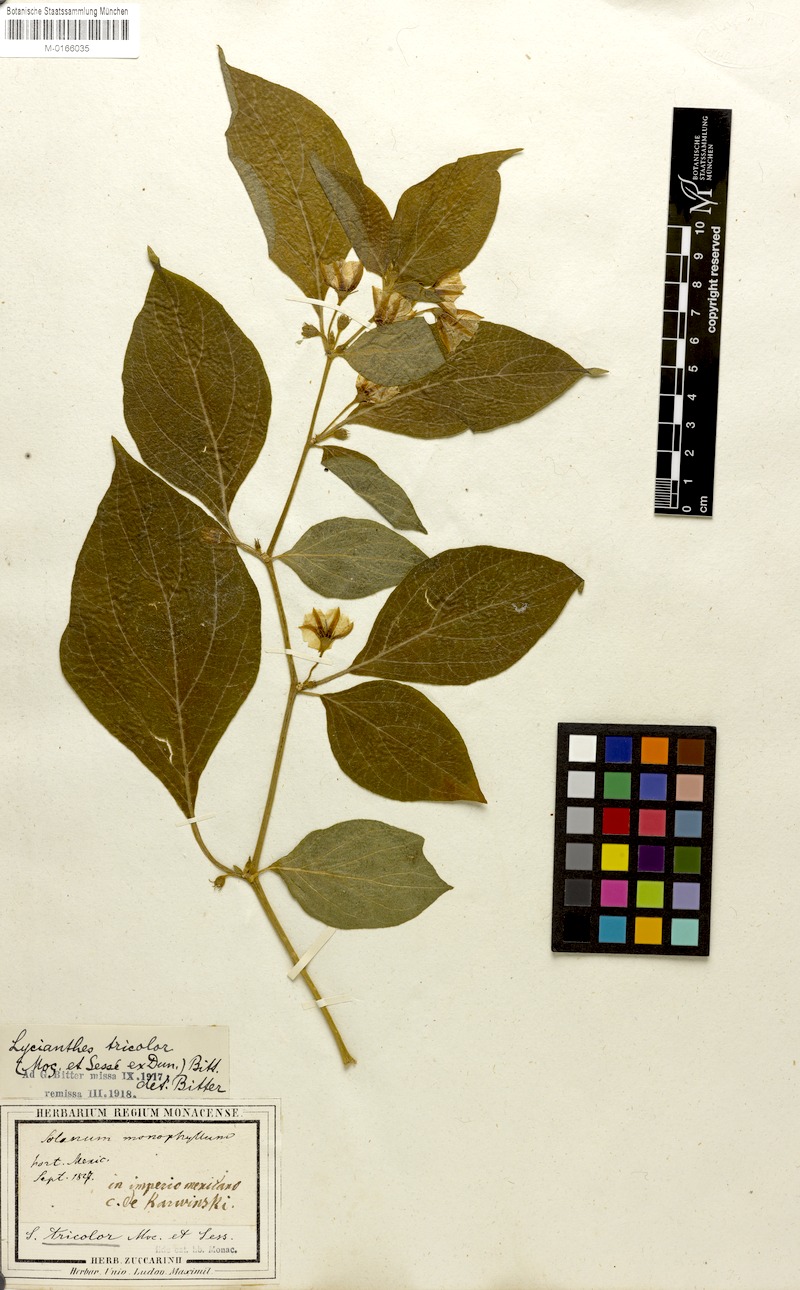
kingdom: Plantae
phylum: Tracheophyta
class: Magnoliopsida
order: Solanales
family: Solanaceae
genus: Lycianthes
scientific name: Lycianthes tricolor
